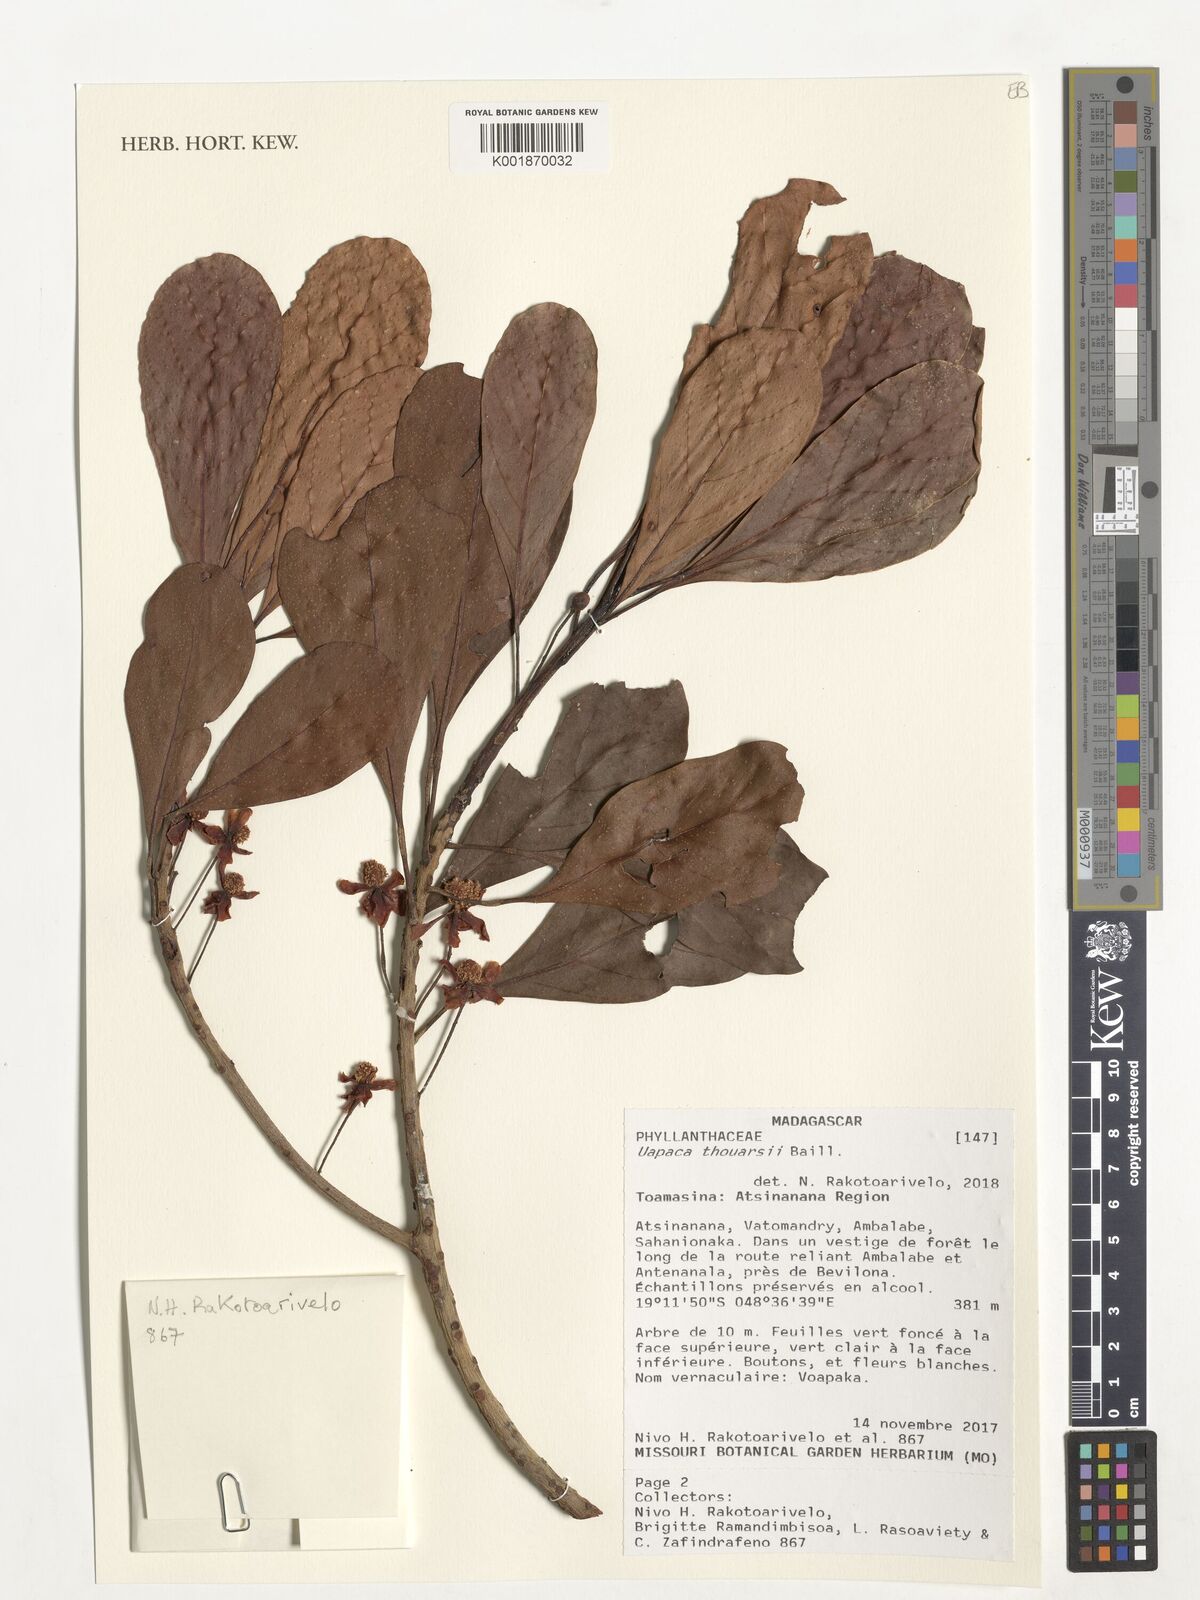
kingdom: Plantae
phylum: Tracheophyta
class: Magnoliopsida
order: Malpighiales
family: Phyllanthaceae
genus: Uapaca
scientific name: Uapaca thouarsii
